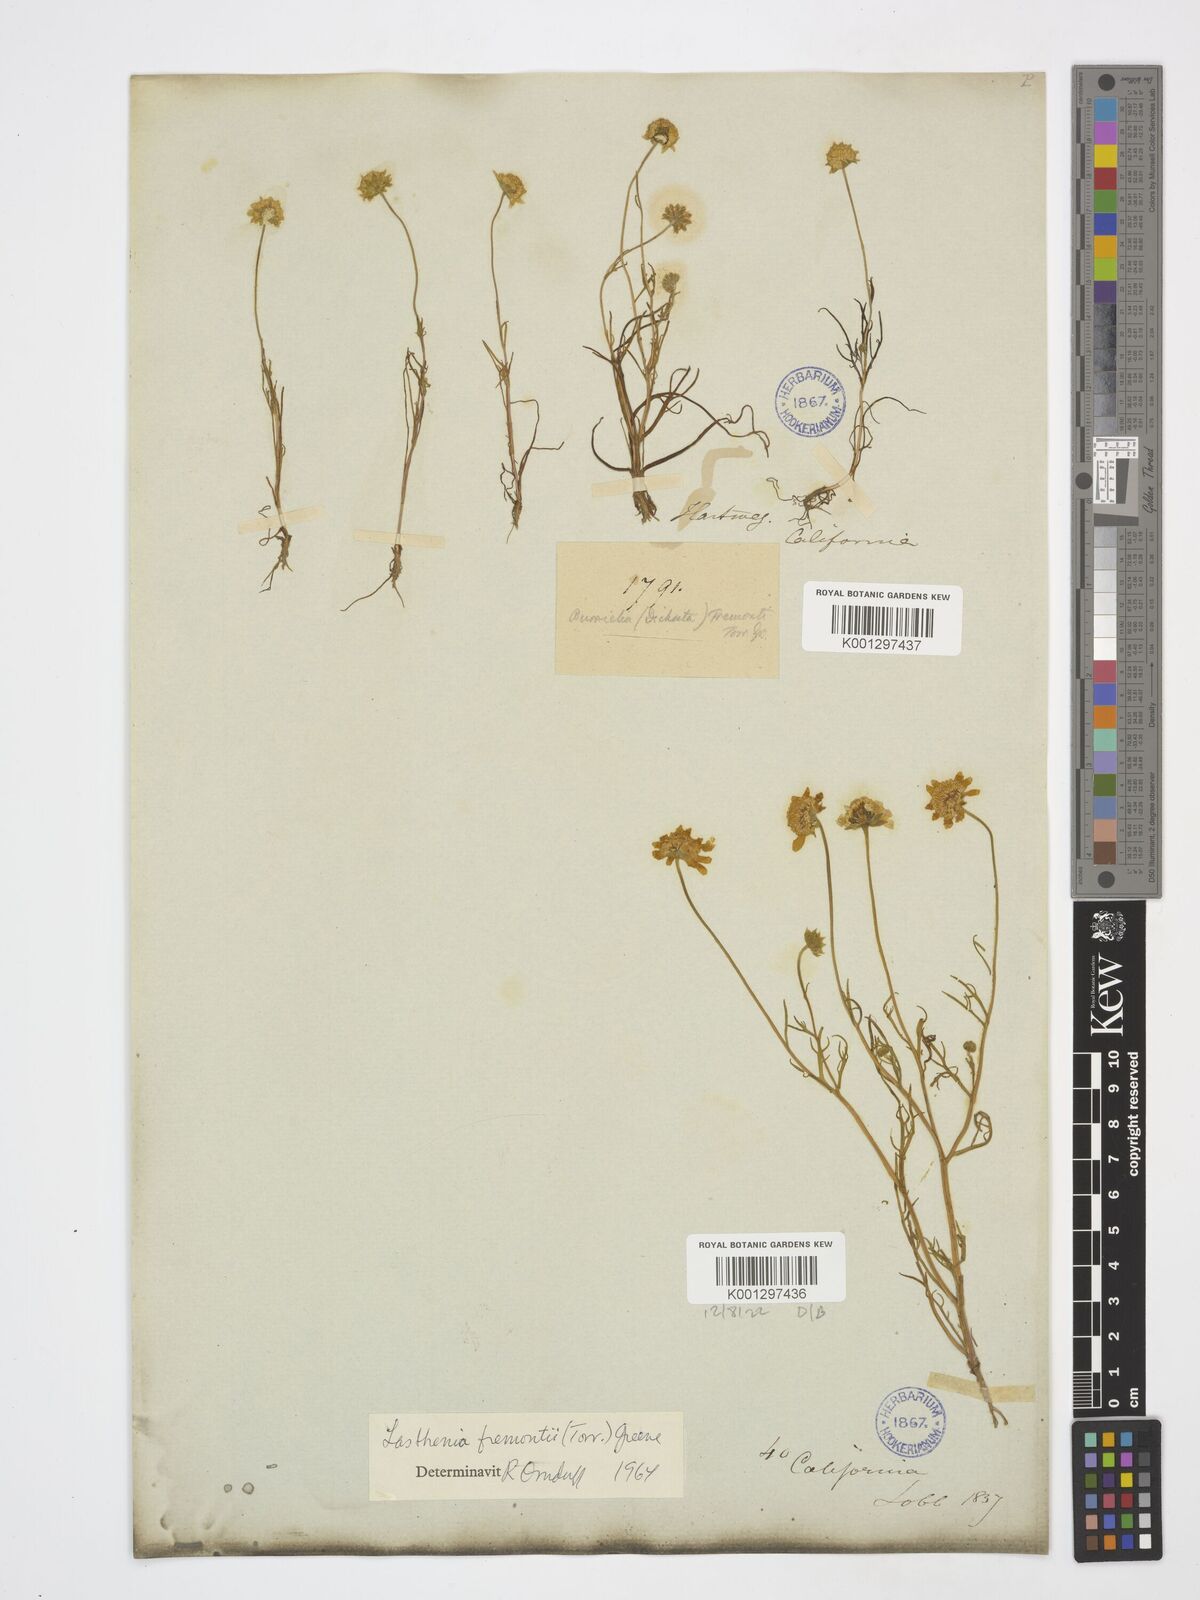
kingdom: Plantae
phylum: Tracheophyta
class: Magnoliopsida
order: Asterales
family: Asteraceae
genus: Lasthenia
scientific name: Lasthenia fremontii
